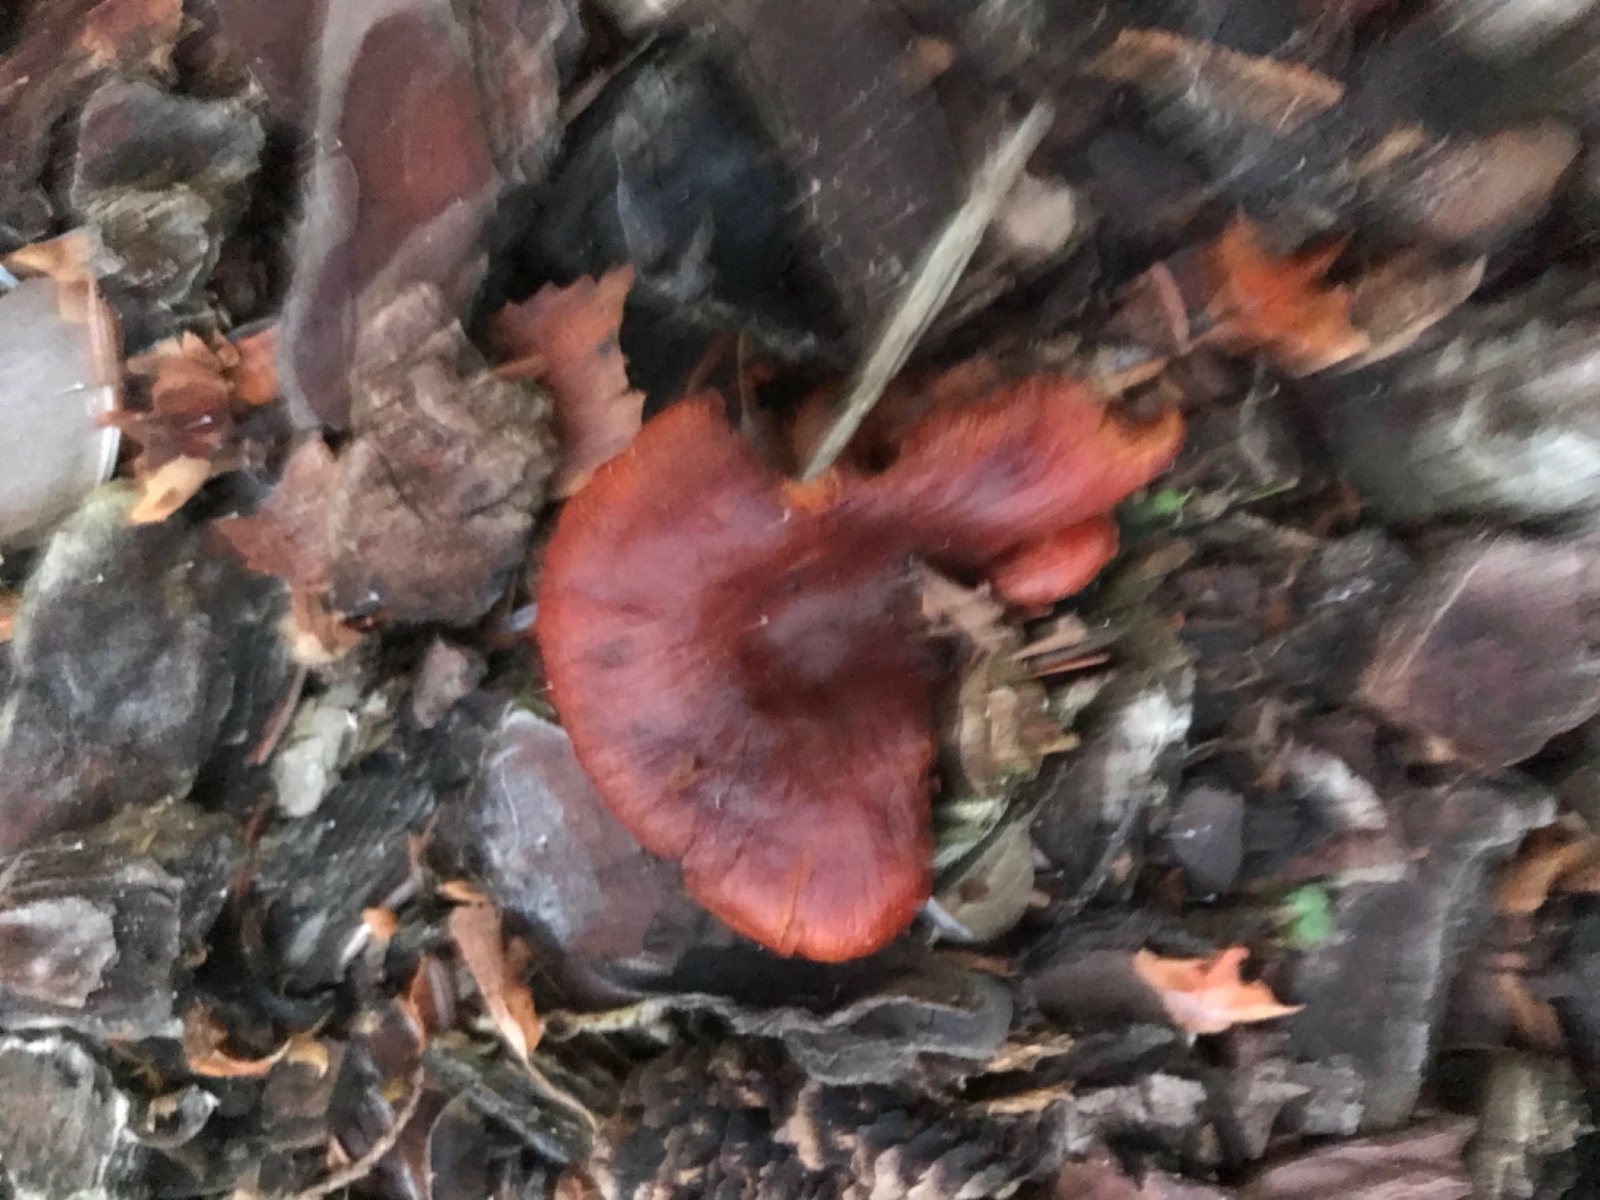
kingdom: Fungi
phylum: Basidiomycota
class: Agaricomycetes
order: Agaricales
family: Tricholomataceae
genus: Paralepista
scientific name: Paralepista flaccida
